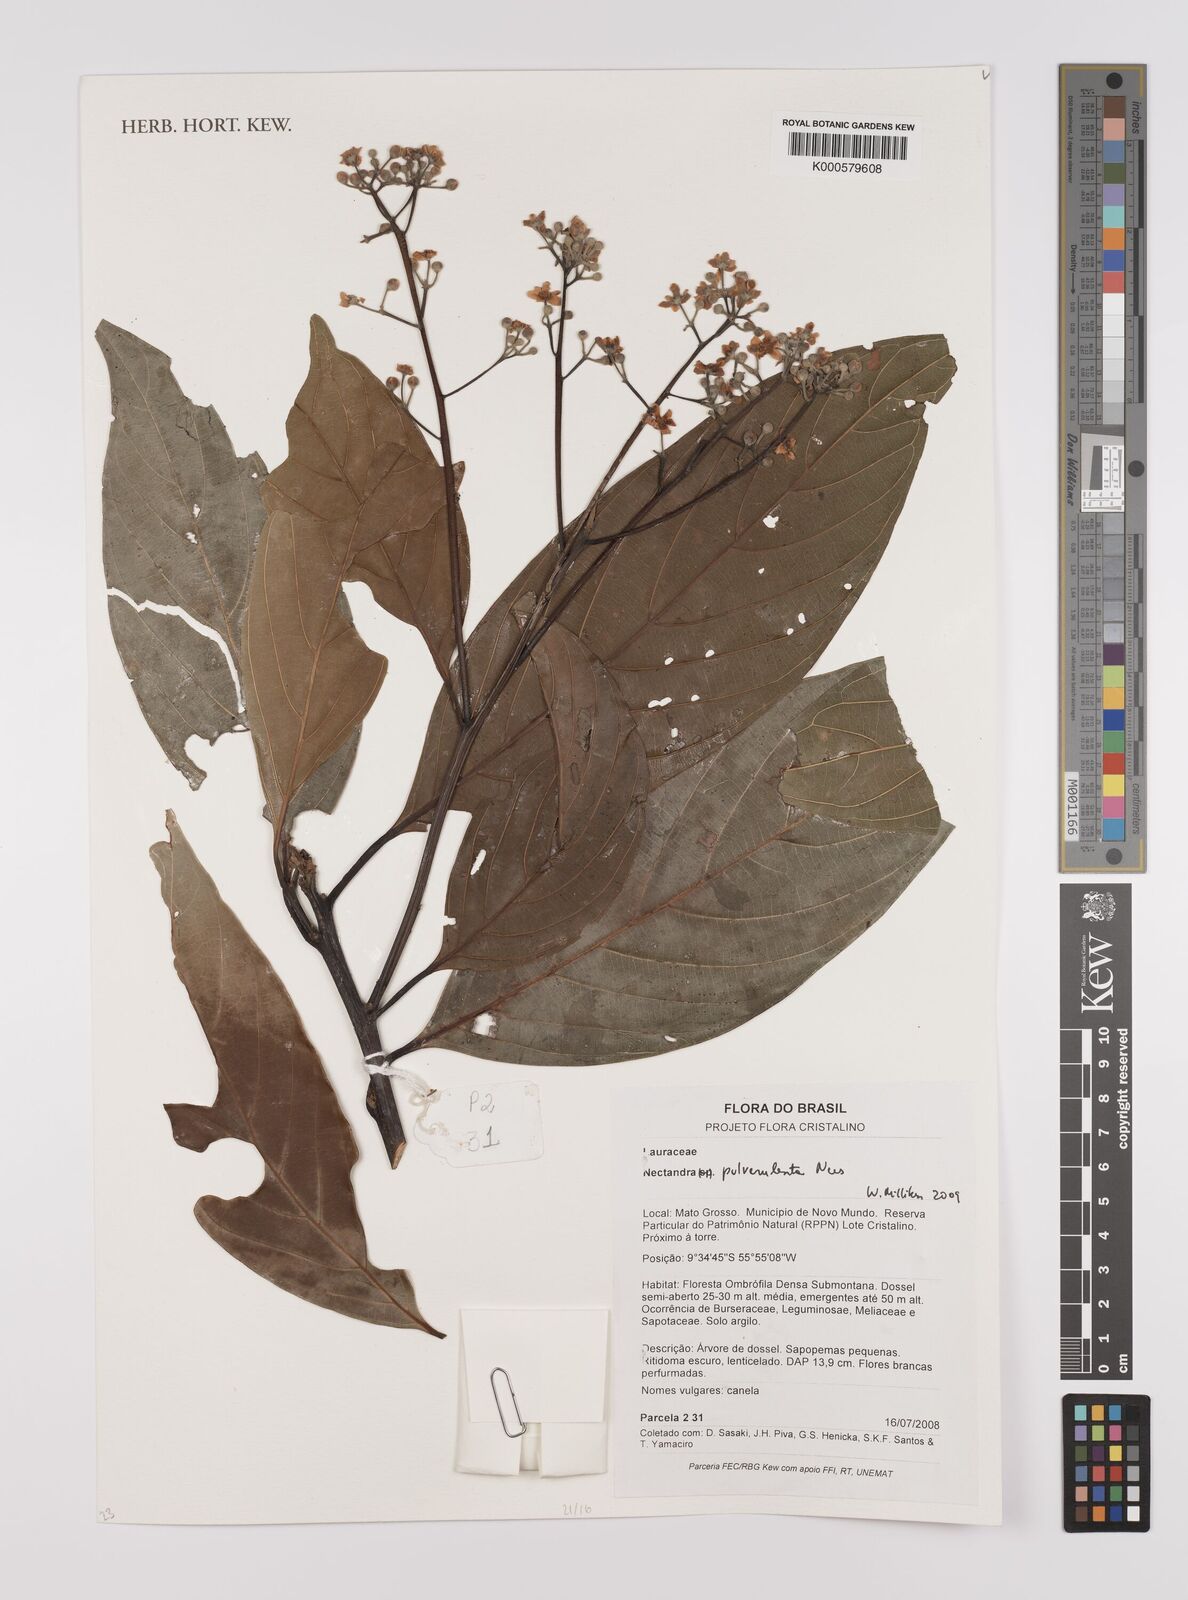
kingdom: Plantae
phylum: Tracheophyta
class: Magnoliopsida
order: Laurales
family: Lauraceae
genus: Nectandra
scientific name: Nectandra pulverulenta
